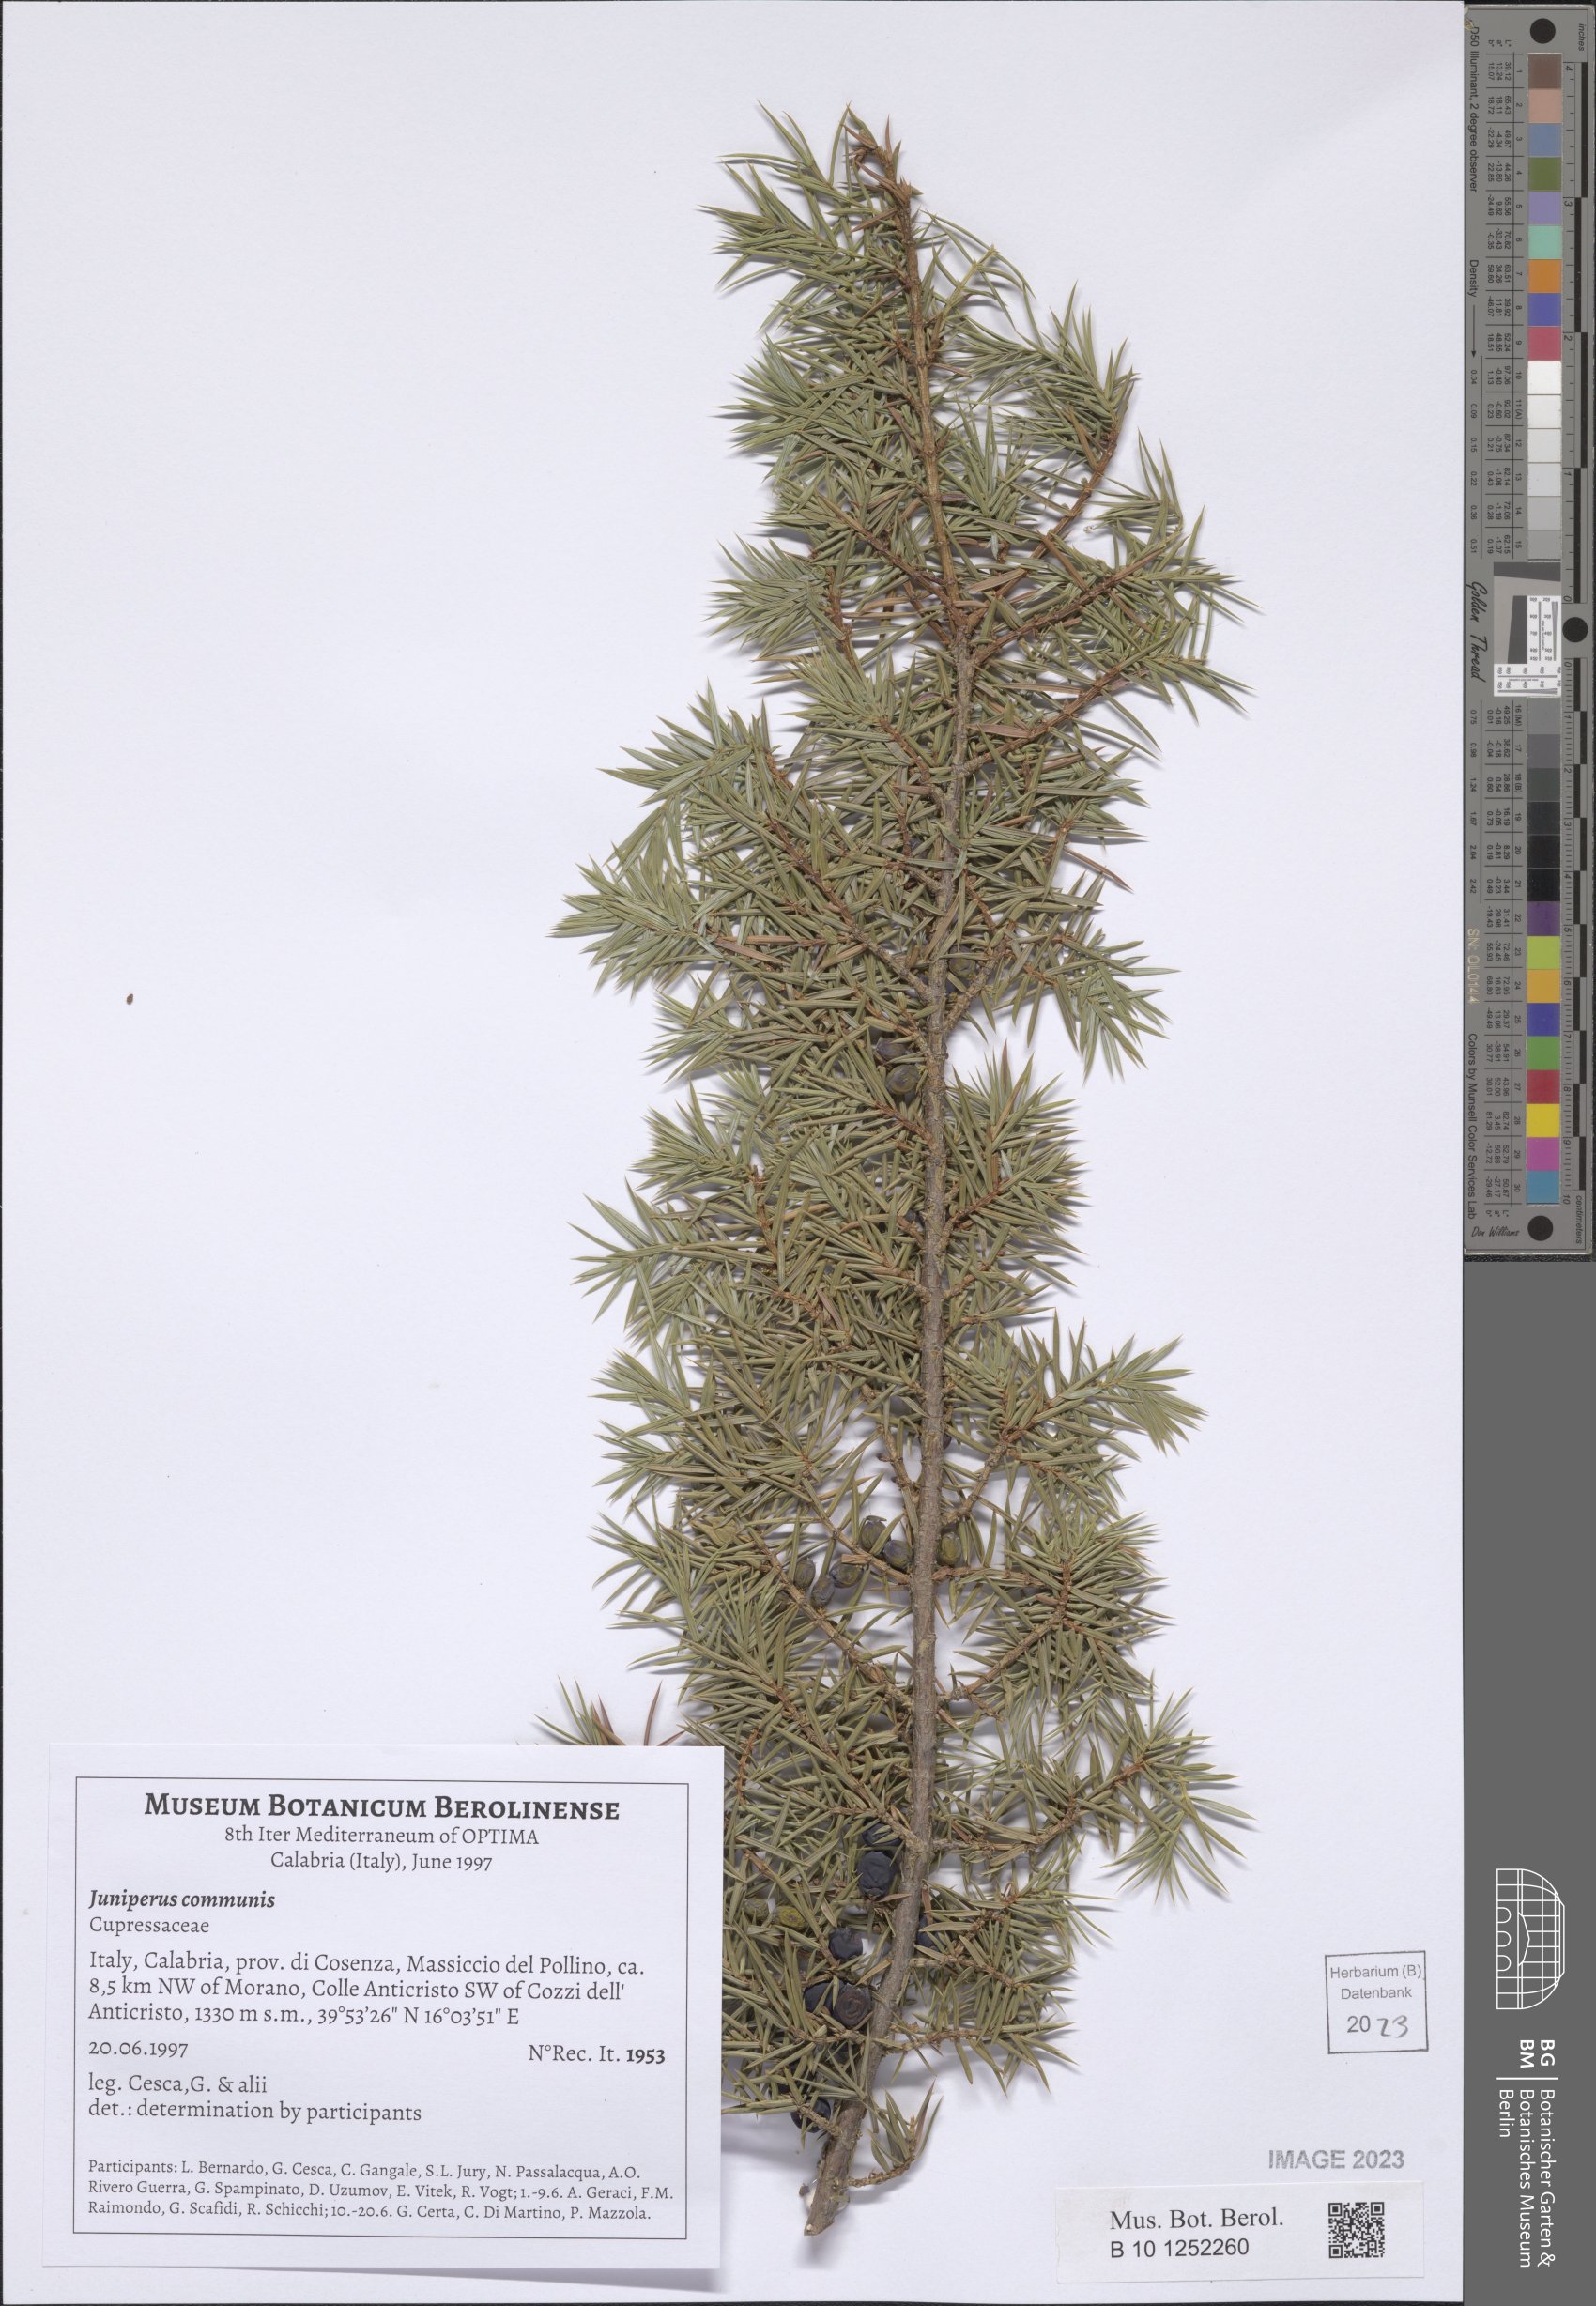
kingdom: Plantae
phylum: Tracheophyta
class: Pinopsida
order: Pinales
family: Cupressaceae
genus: Juniperus
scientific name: Juniperus communis
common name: Common juniper
